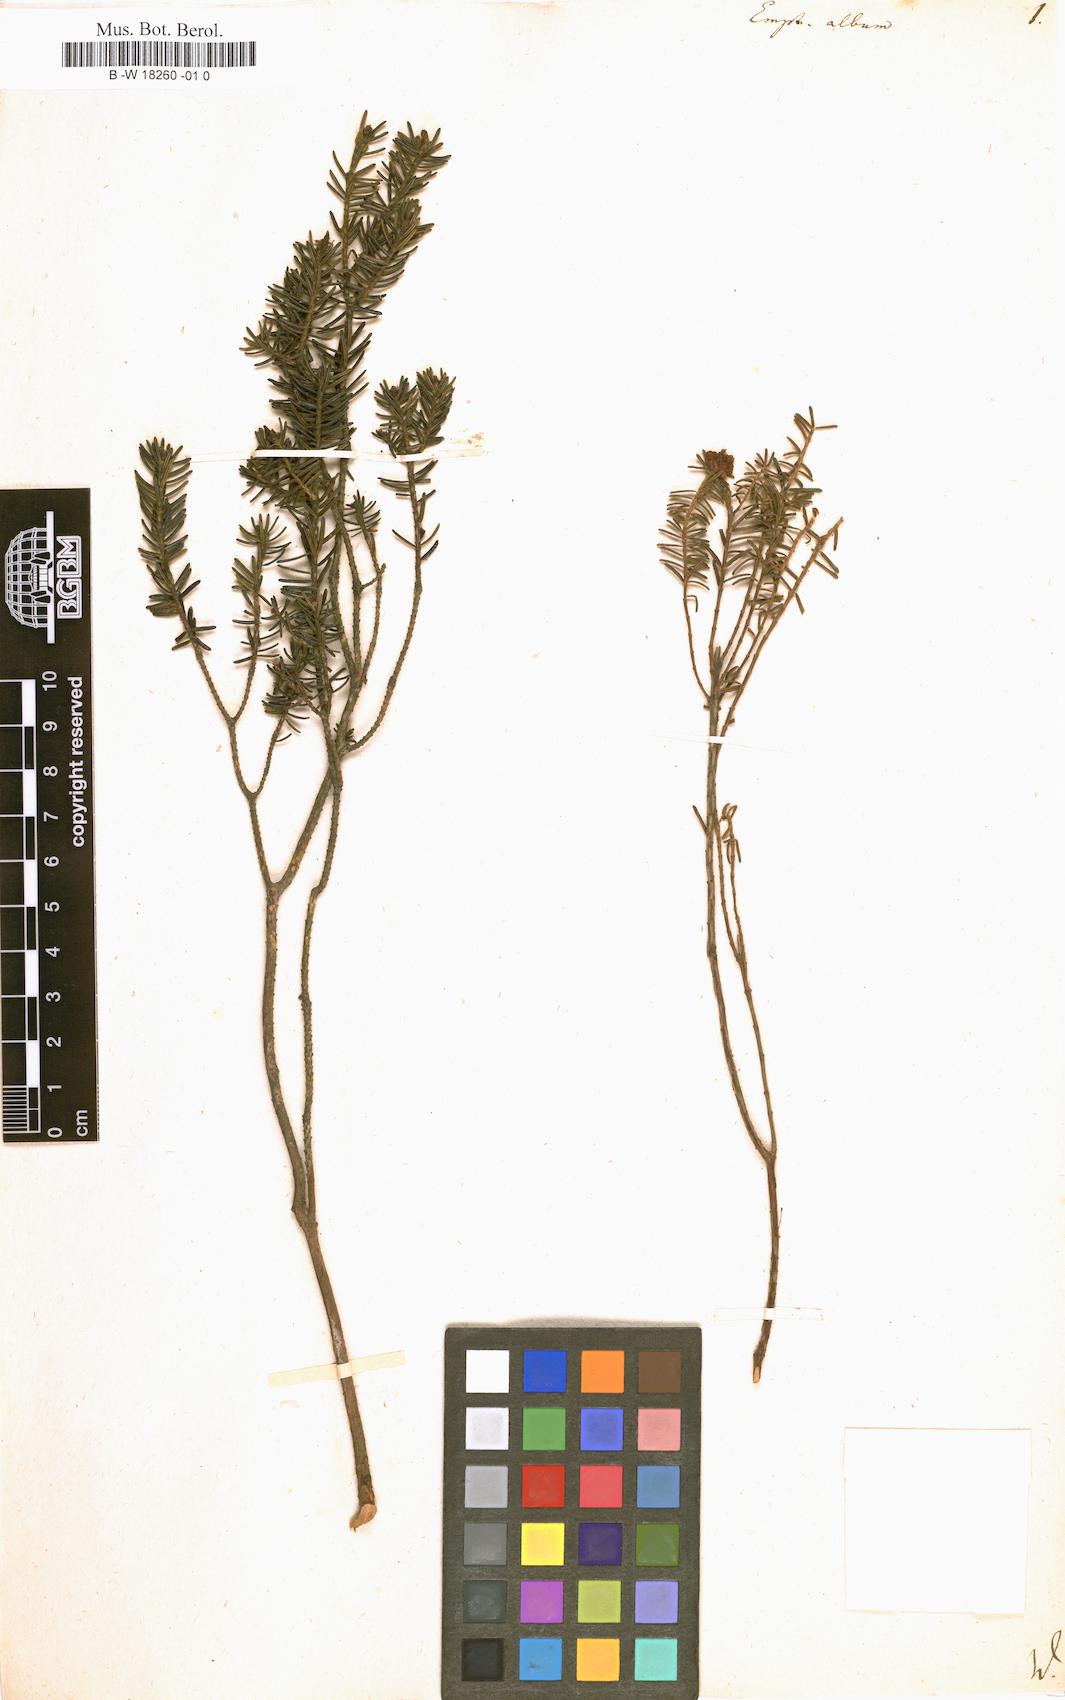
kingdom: Plantae
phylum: Tracheophyta
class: Magnoliopsida
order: Ericales
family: Ericaceae
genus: Corema
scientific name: Corema album
